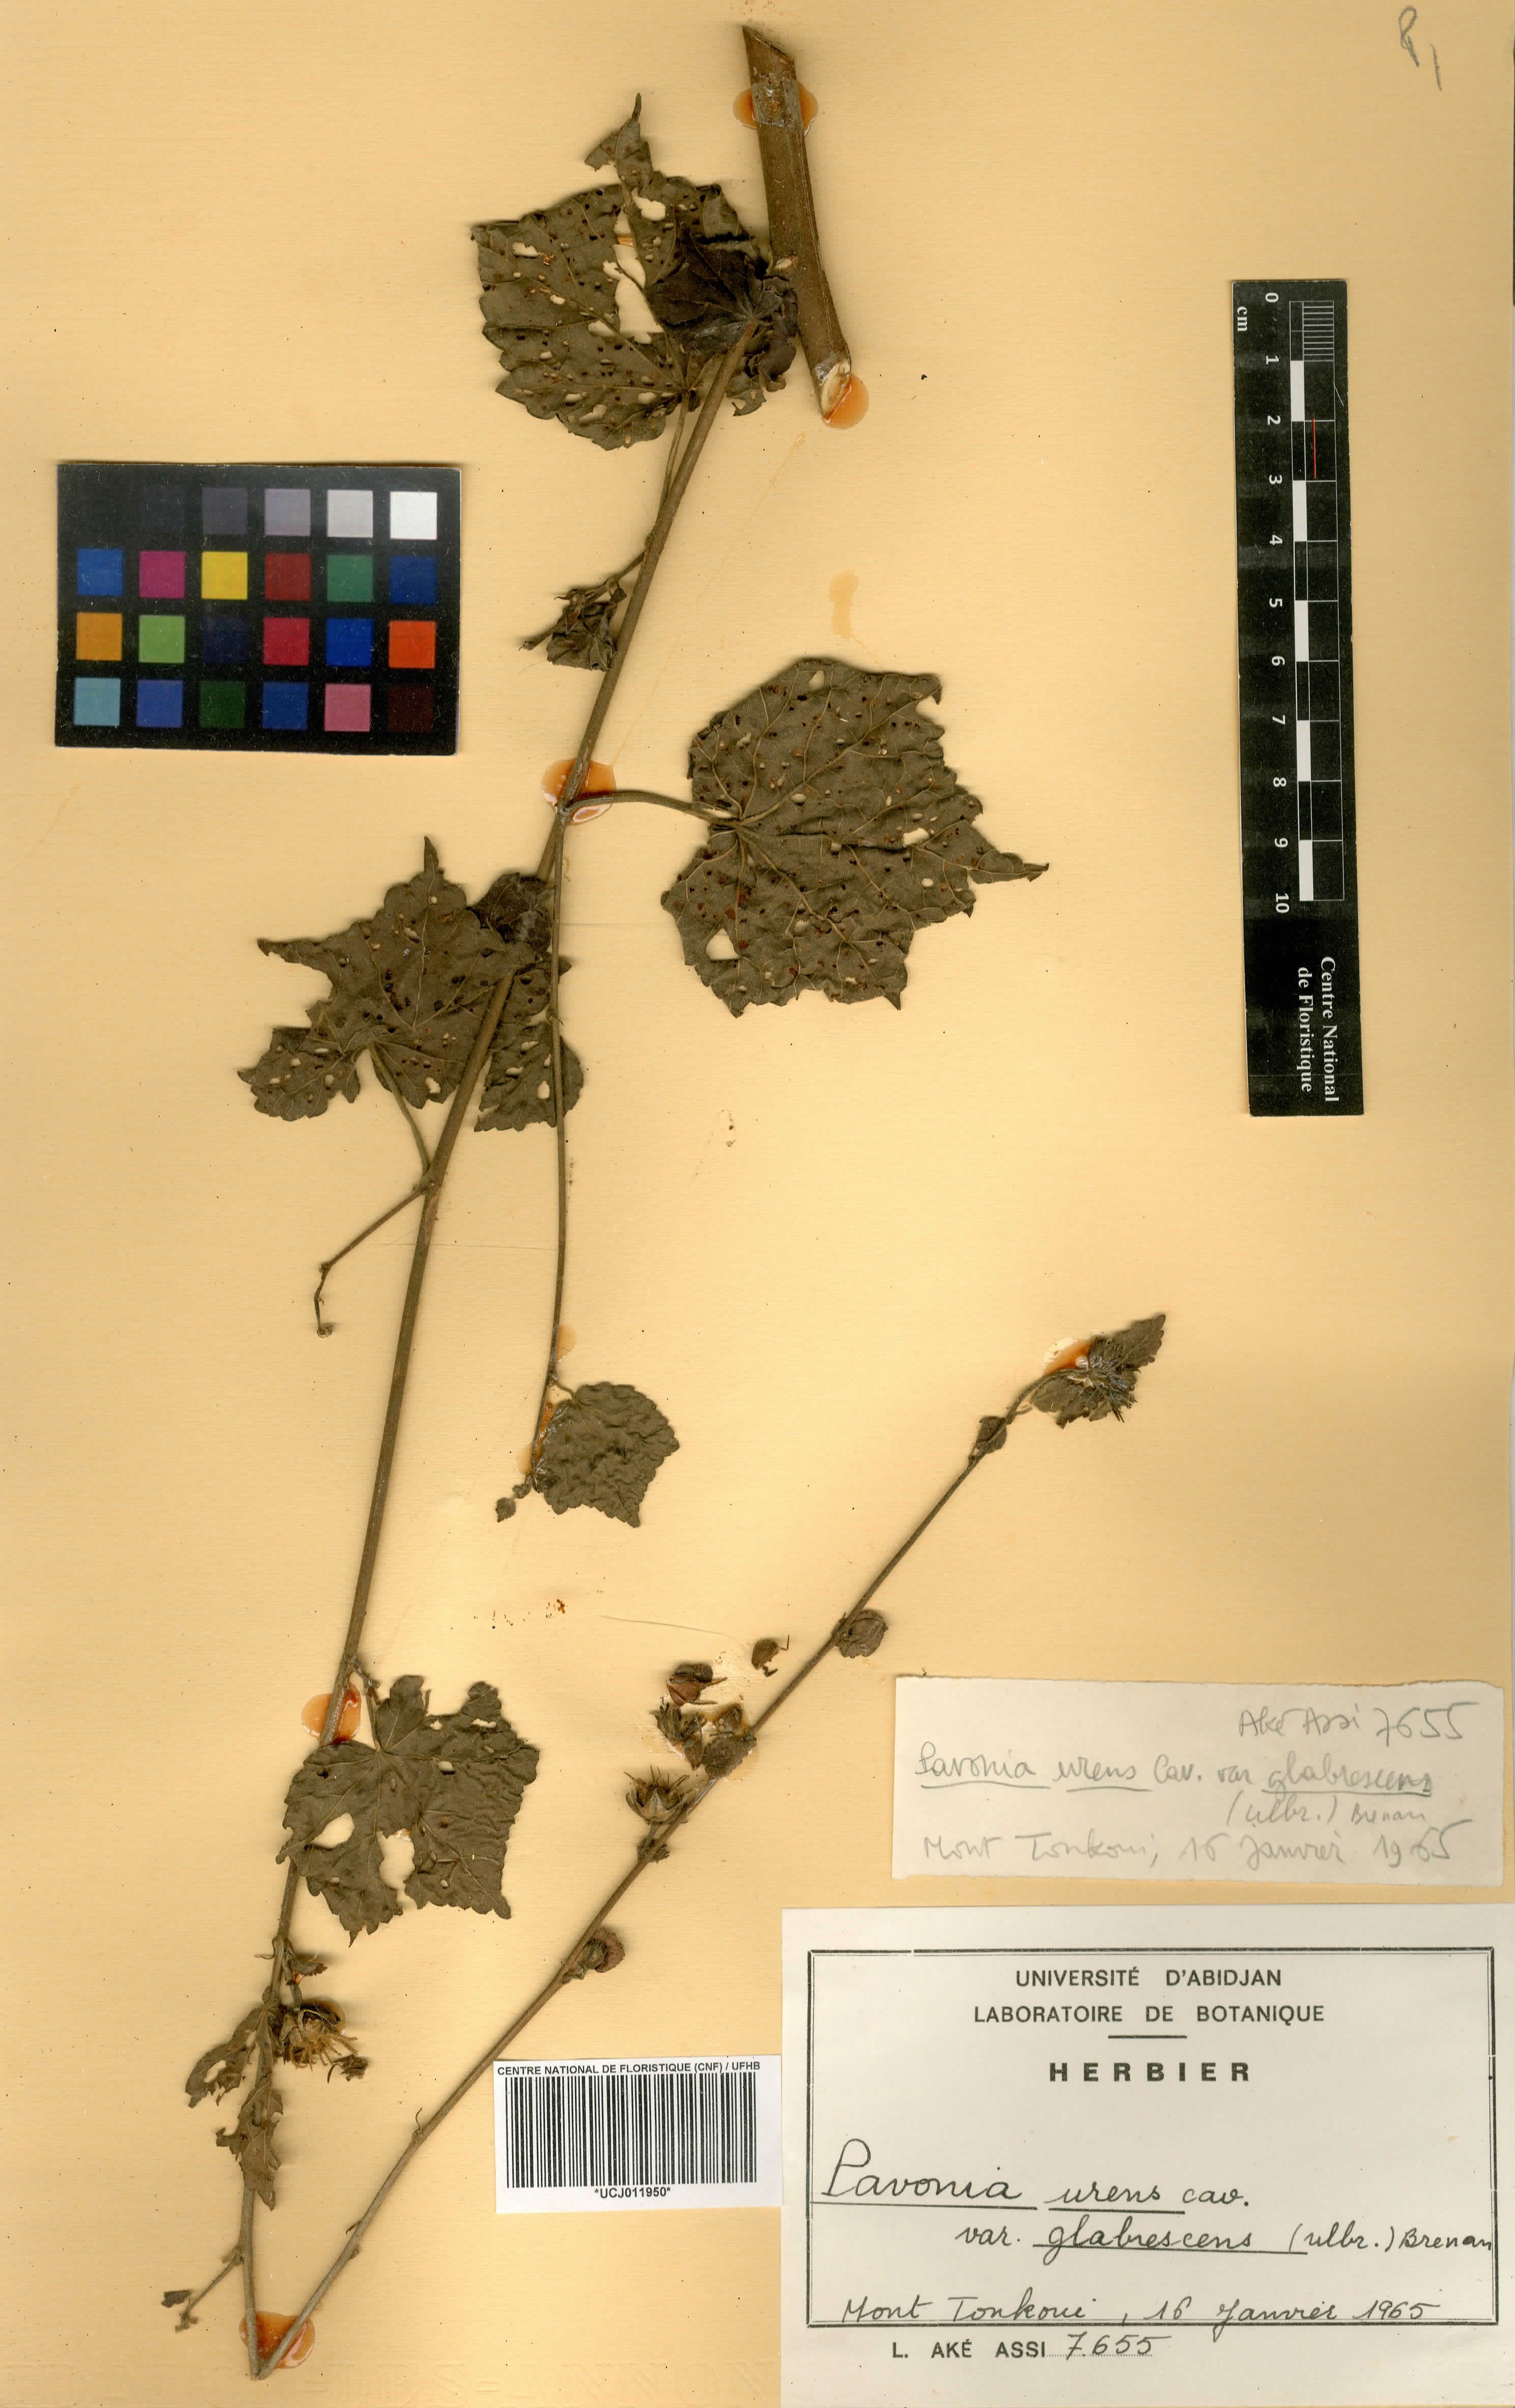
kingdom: Plantae
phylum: Tracheophyta
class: Magnoliopsida
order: Malvales
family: Malvaceae
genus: Pavonia
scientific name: Pavonia schimperiana
